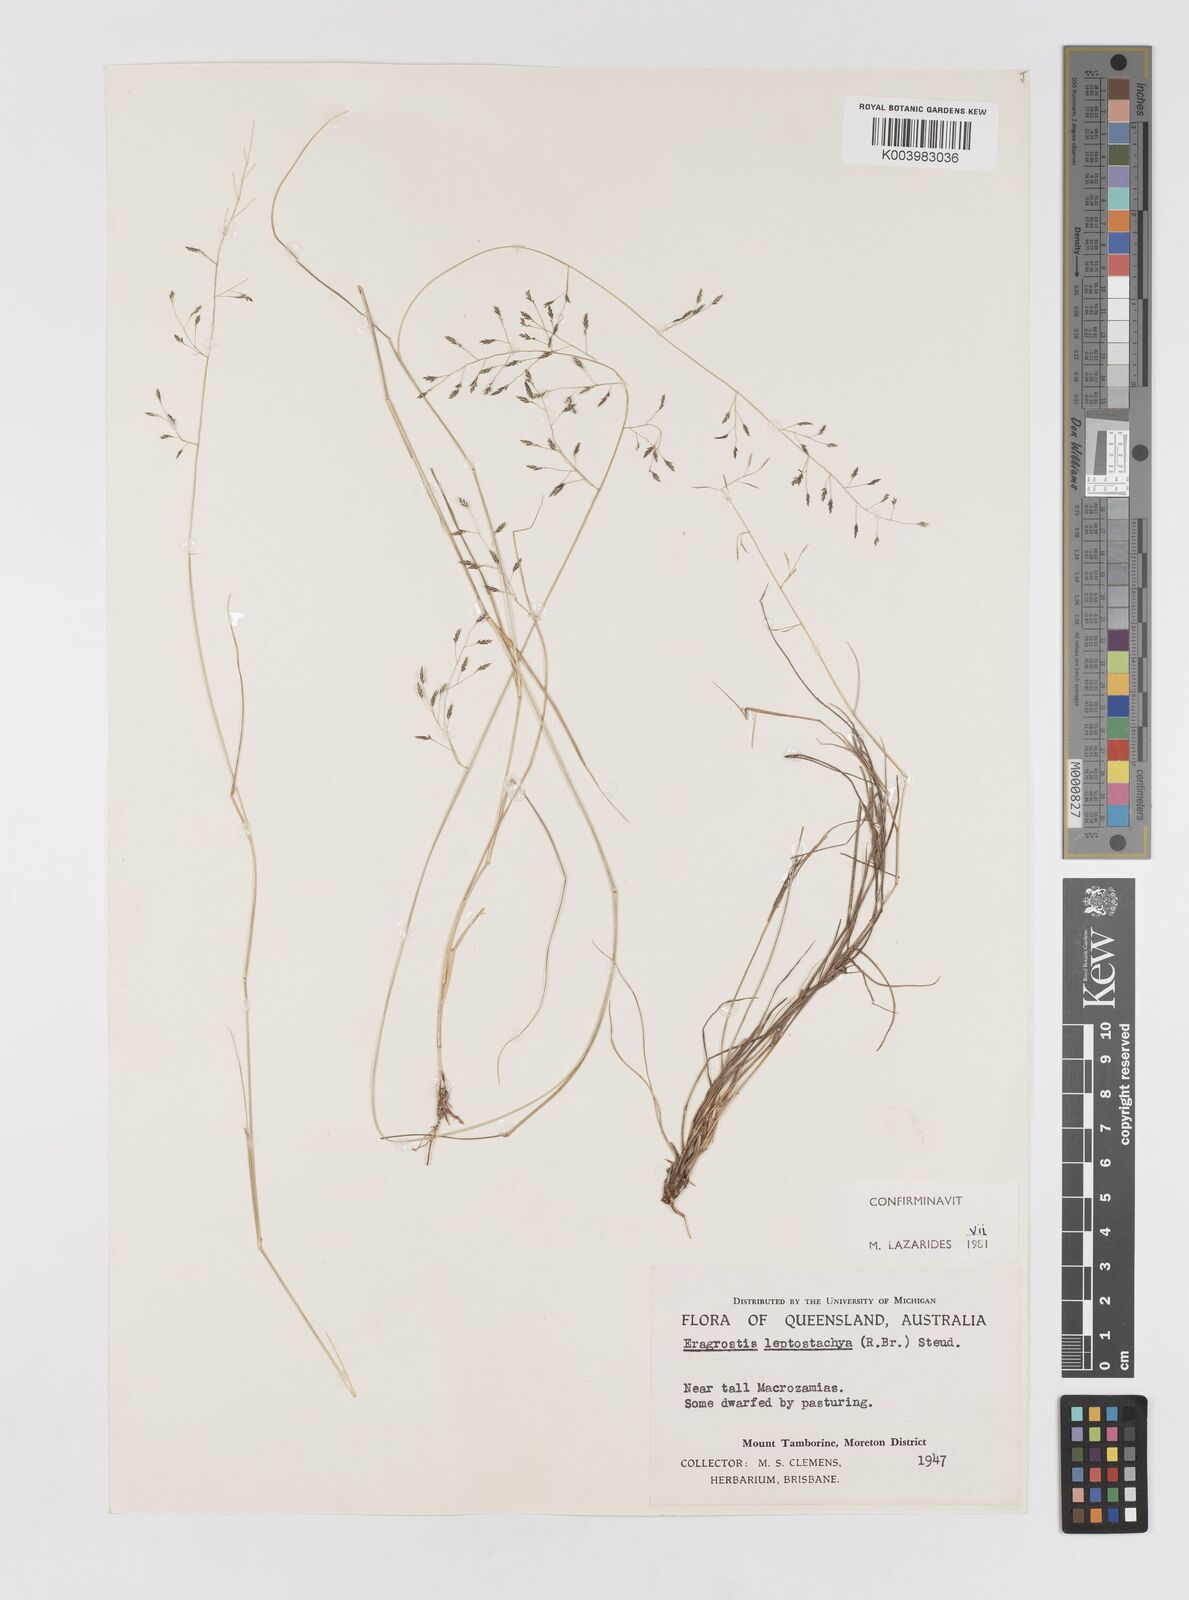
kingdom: Plantae
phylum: Tracheophyta
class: Liliopsida
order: Poales
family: Poaceae
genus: Eragrostis
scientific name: Eragrostis leptostachya
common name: Australian lovegrass
